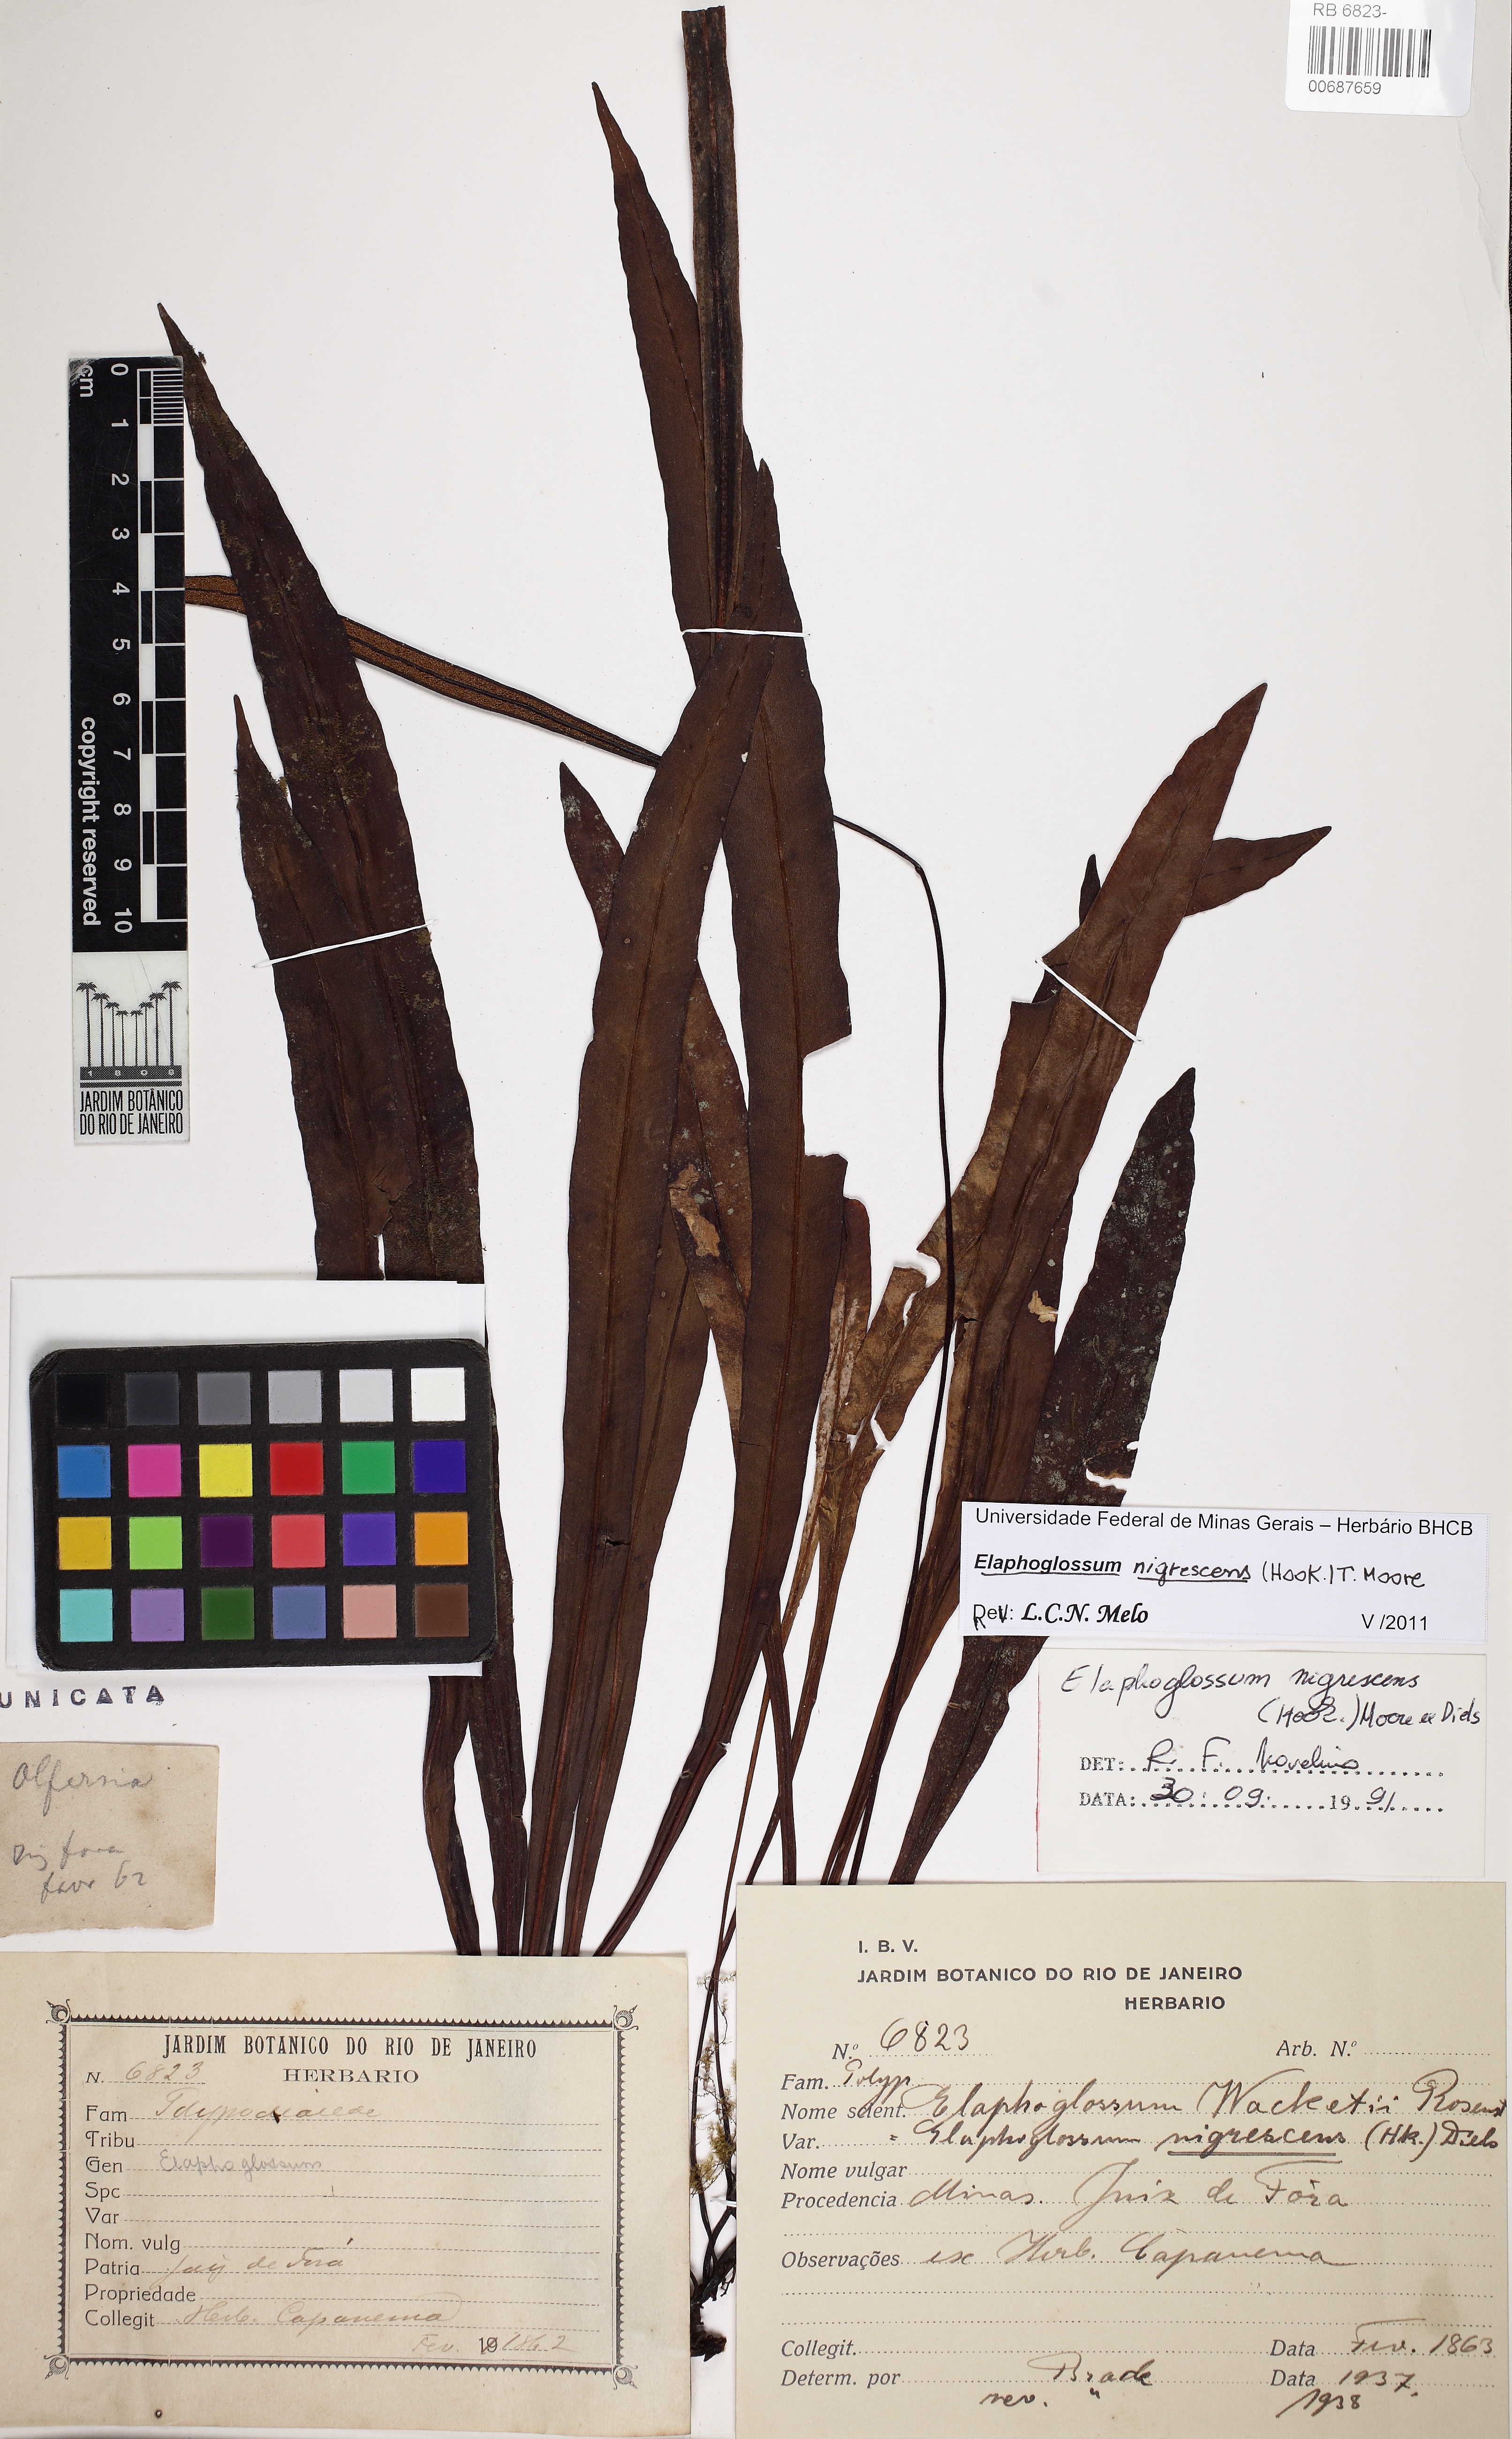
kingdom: Plantae
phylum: Tracheophyta
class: Polypodiopsida
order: Polypodiales
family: Dryopteridaceae
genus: Elaphoglossum
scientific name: Elaphoglossum nigrescens
